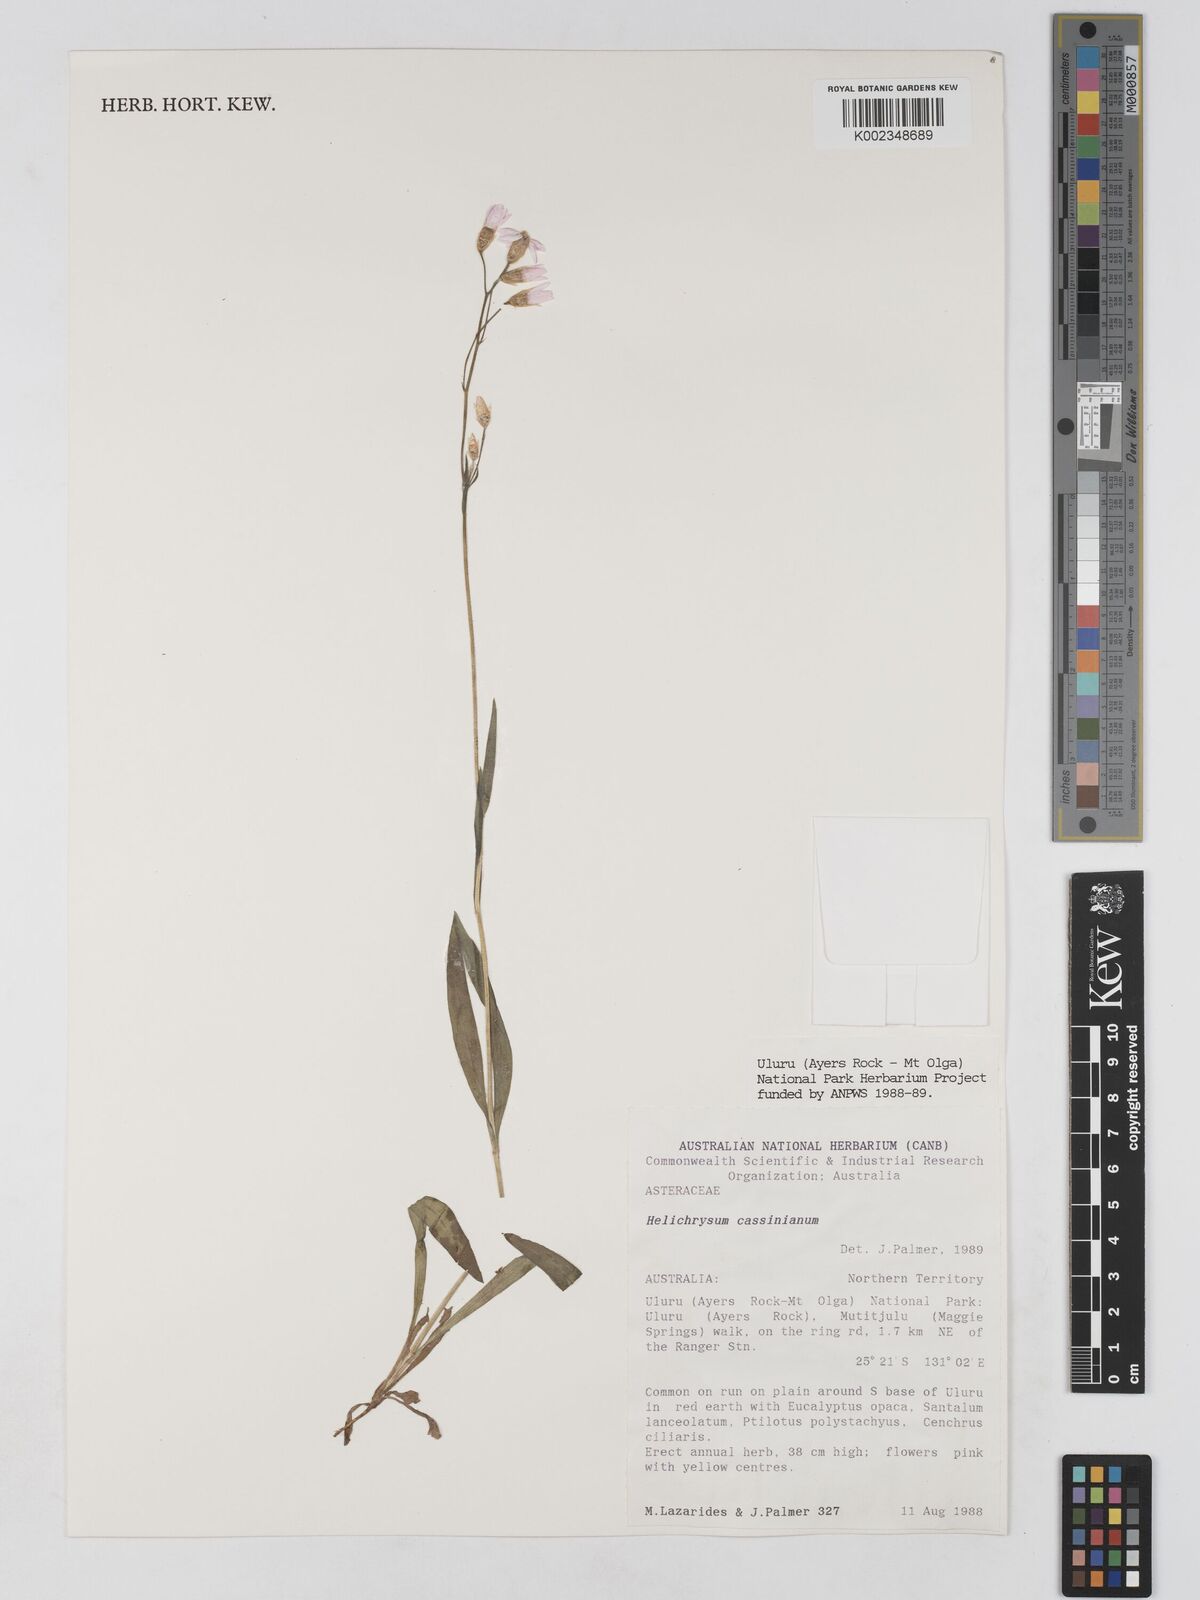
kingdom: Plantae
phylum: Tracheophyta
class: Magnoliopsida
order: Asterales
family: Asteraceae
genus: Schoenia
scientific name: Schoenia cassiniana
